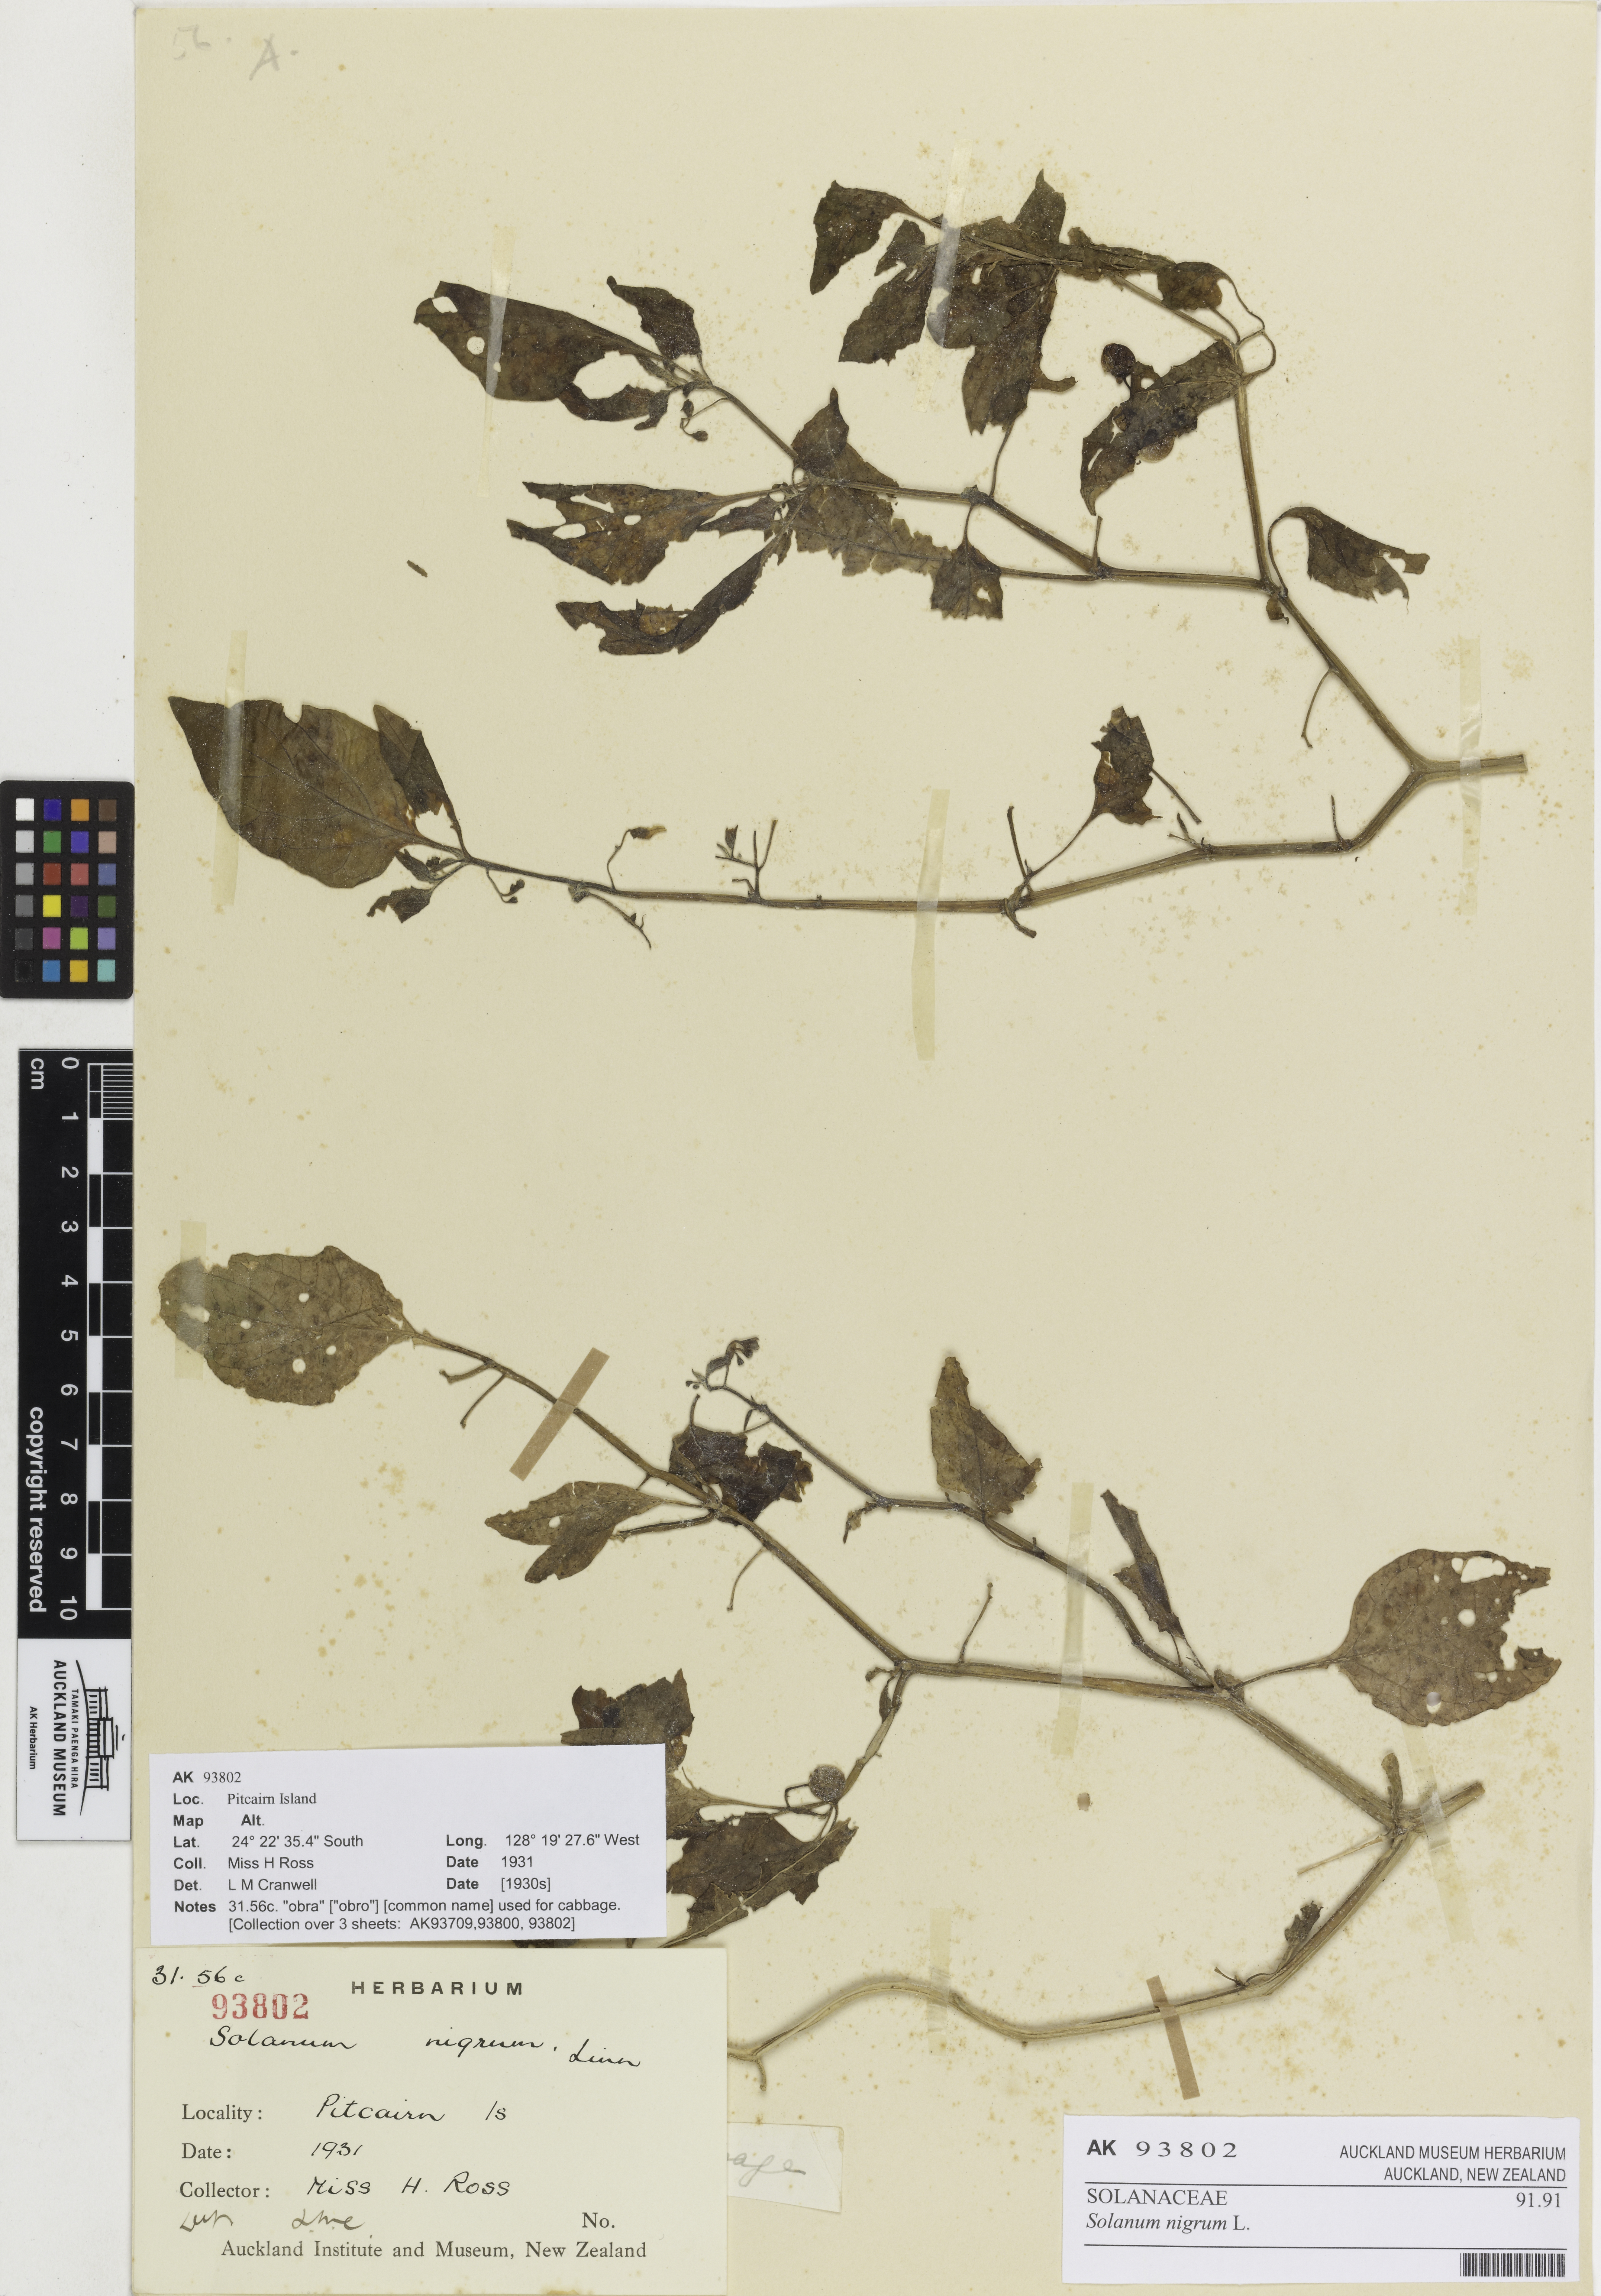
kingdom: Plantae
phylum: Tracheophyta
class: Magnoliopsida
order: Solanales
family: Solanaceae
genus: Solanum
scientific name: Solanum opacum
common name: Green-berry nightshade
